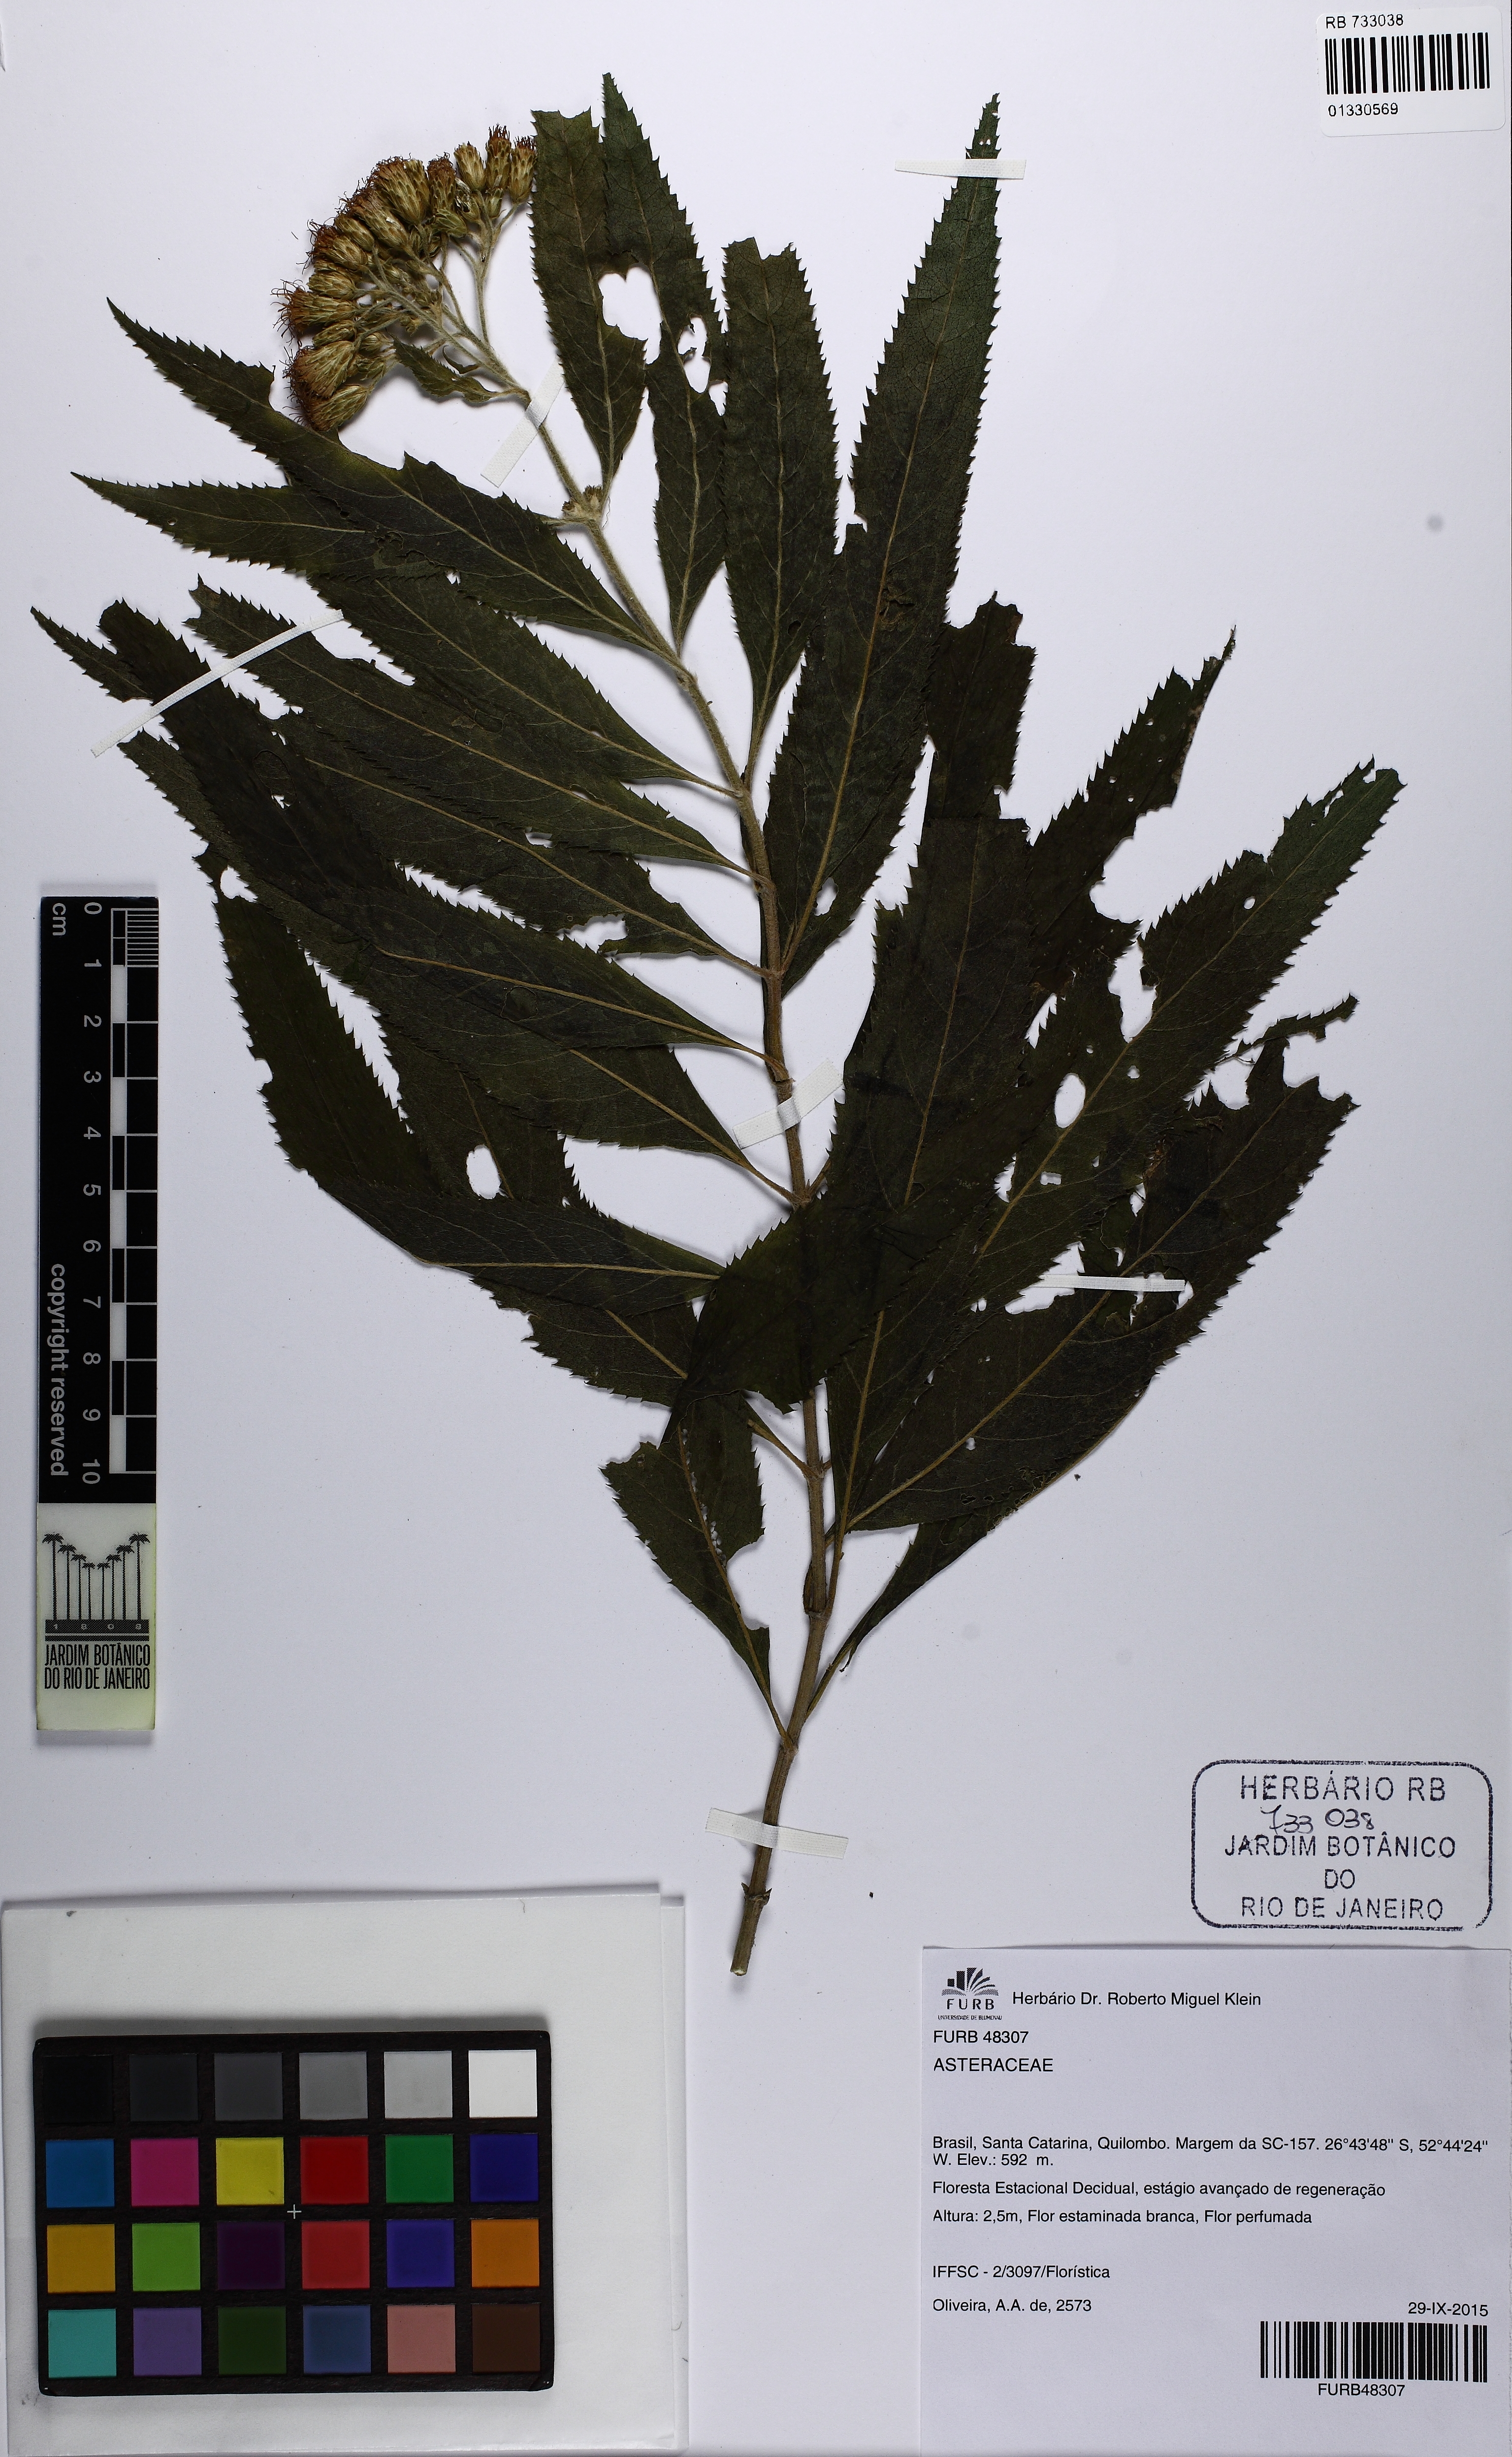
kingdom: Plantae
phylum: Tracheophyta
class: Magnoliopsida
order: Asterales
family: Asteraceae
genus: Neocabreria
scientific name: Neocabreria malachophylla
